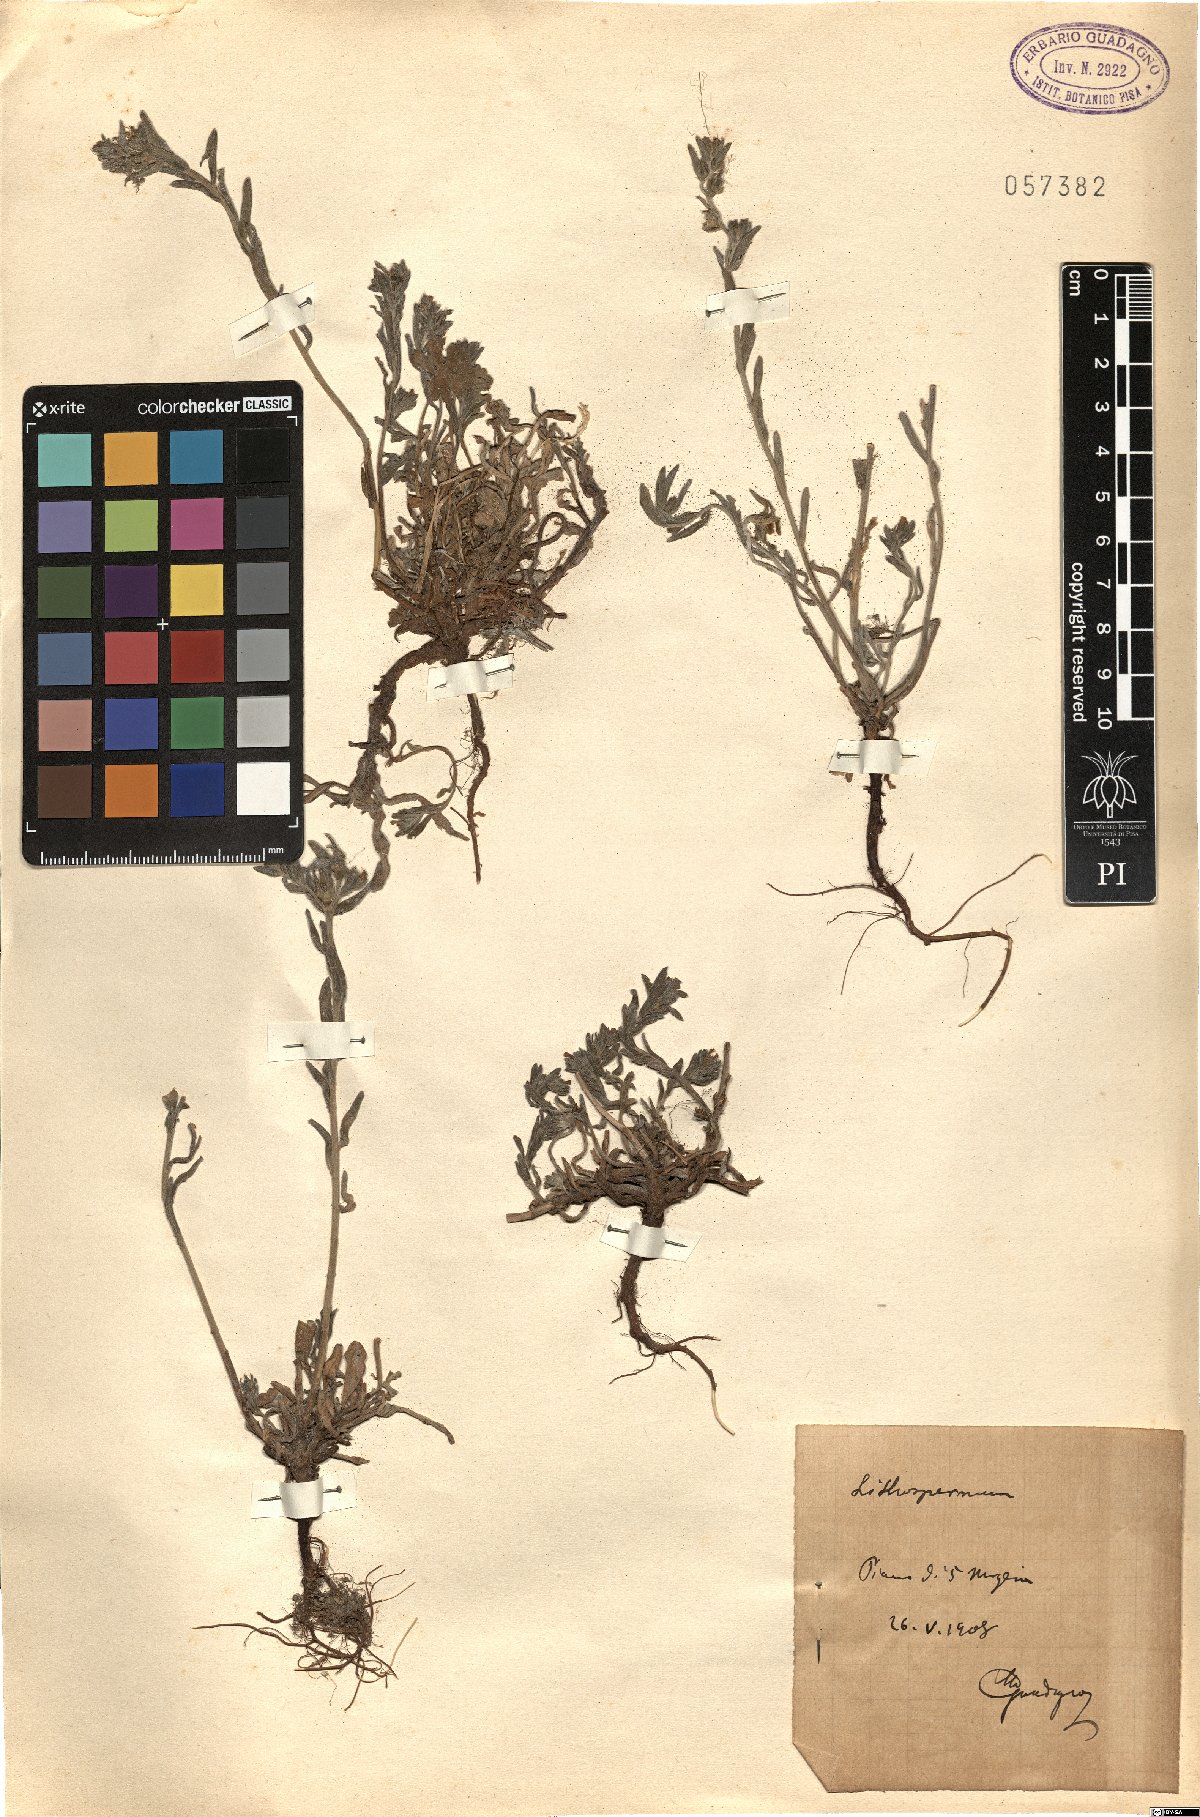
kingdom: Plantae
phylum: Tracheophyta
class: Magnoliopsida
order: Boraginales
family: Boraginaceae
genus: Lithospermum
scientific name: Lithospermum
